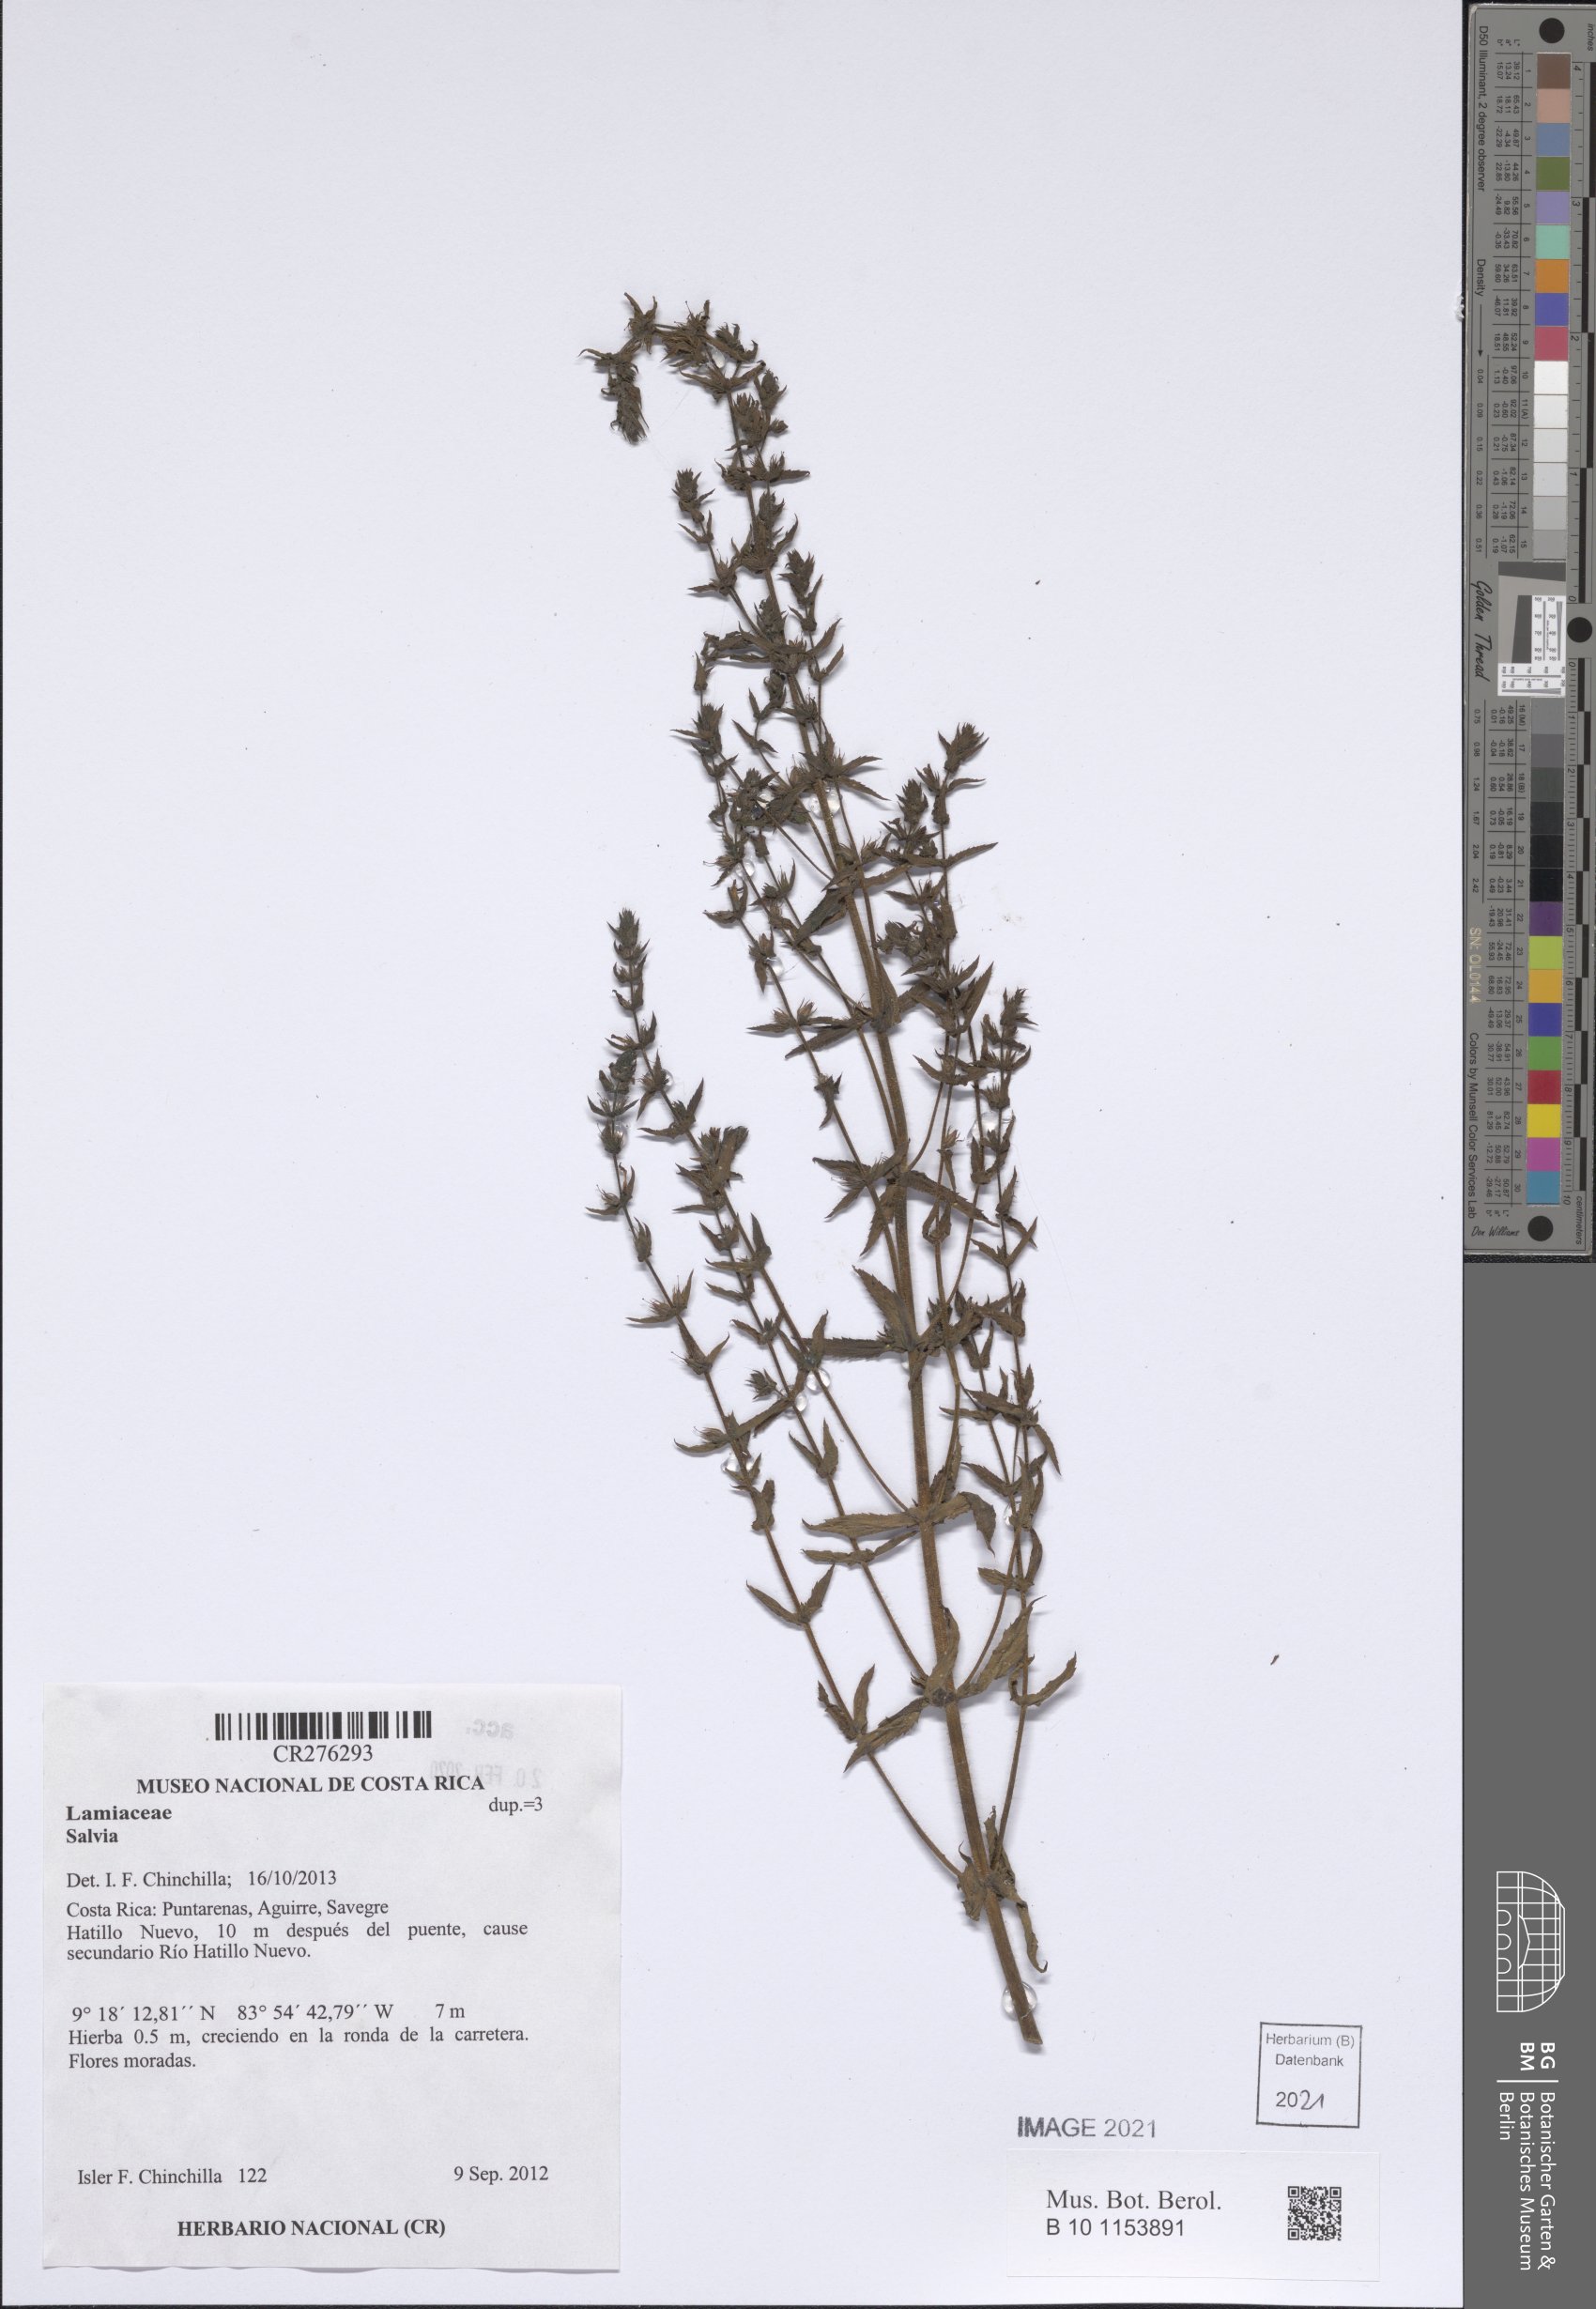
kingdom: Plantae
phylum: Tracheophyta
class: Magnoliopsida
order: Lamiales
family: Plantaginaceae
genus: Stemodia
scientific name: Stemodia durantifolia
